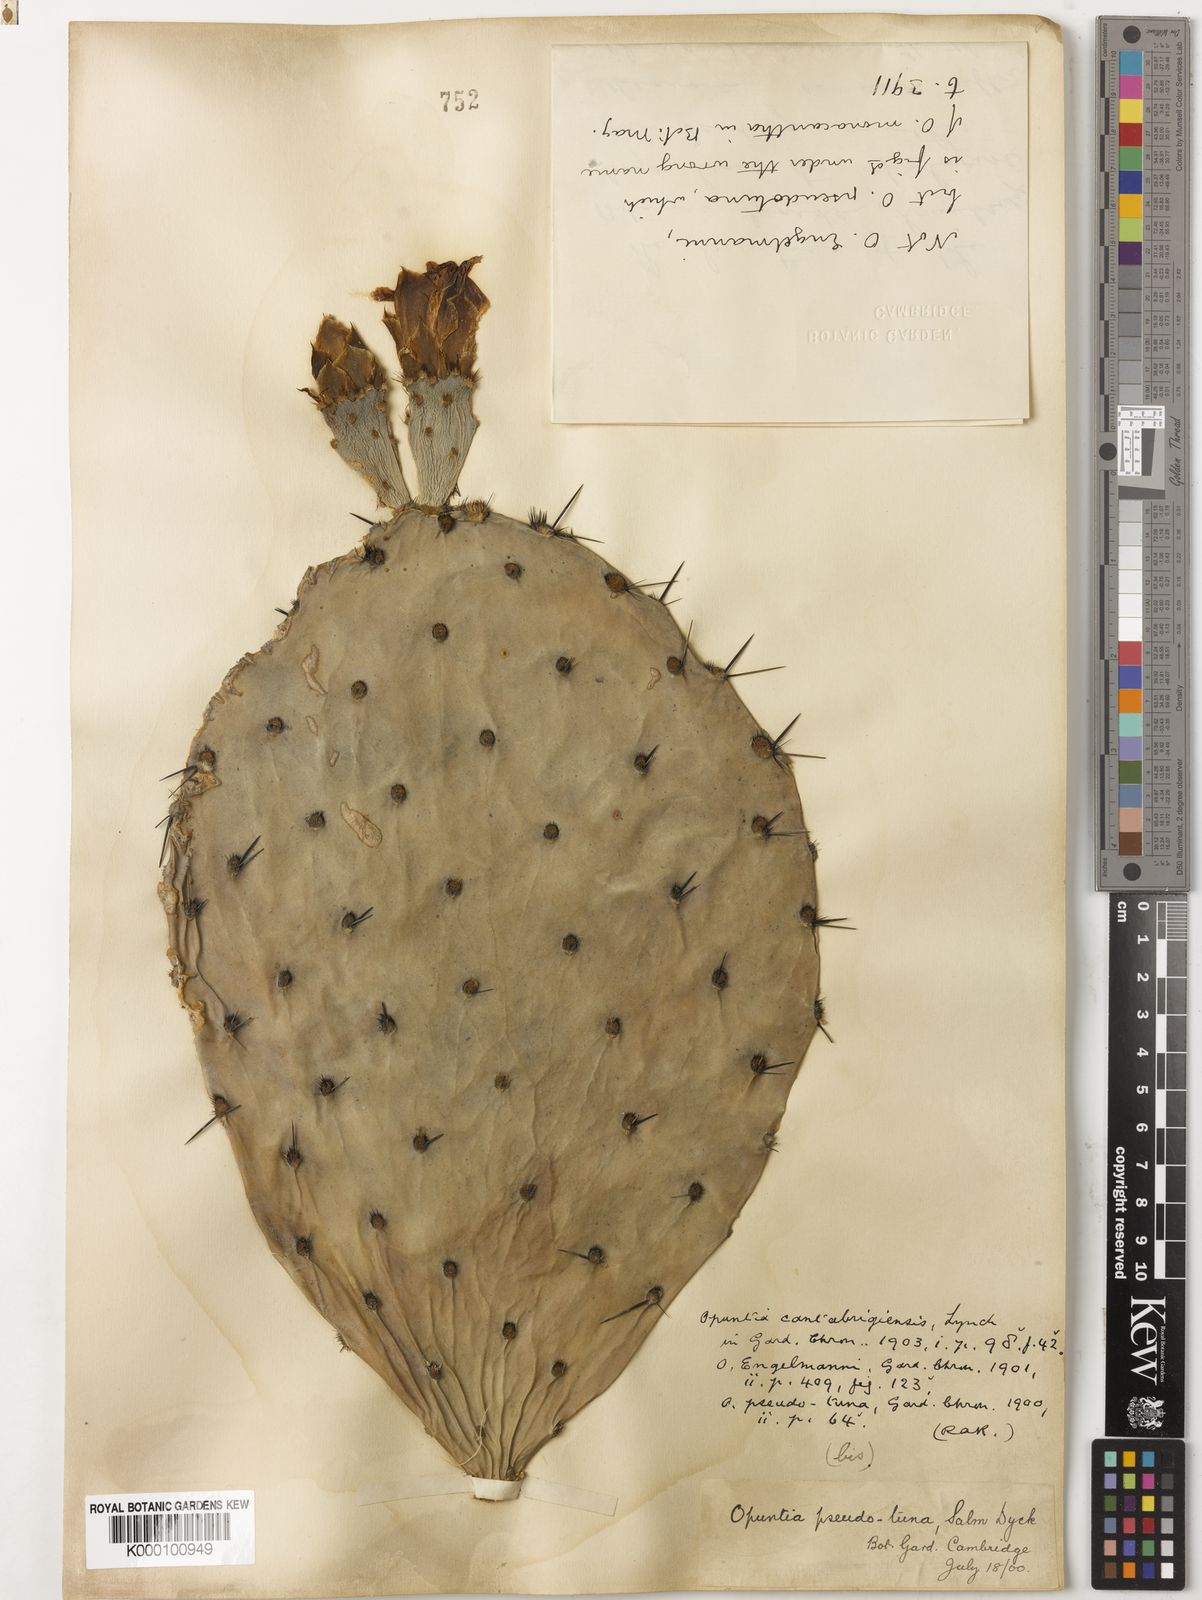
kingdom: Plantae
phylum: Tracheophyta
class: Magnoliopsida
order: Caryophyllales
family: Cactaceae
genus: Opuntia
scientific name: Opuntia engelmannii
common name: Cactus-apple
